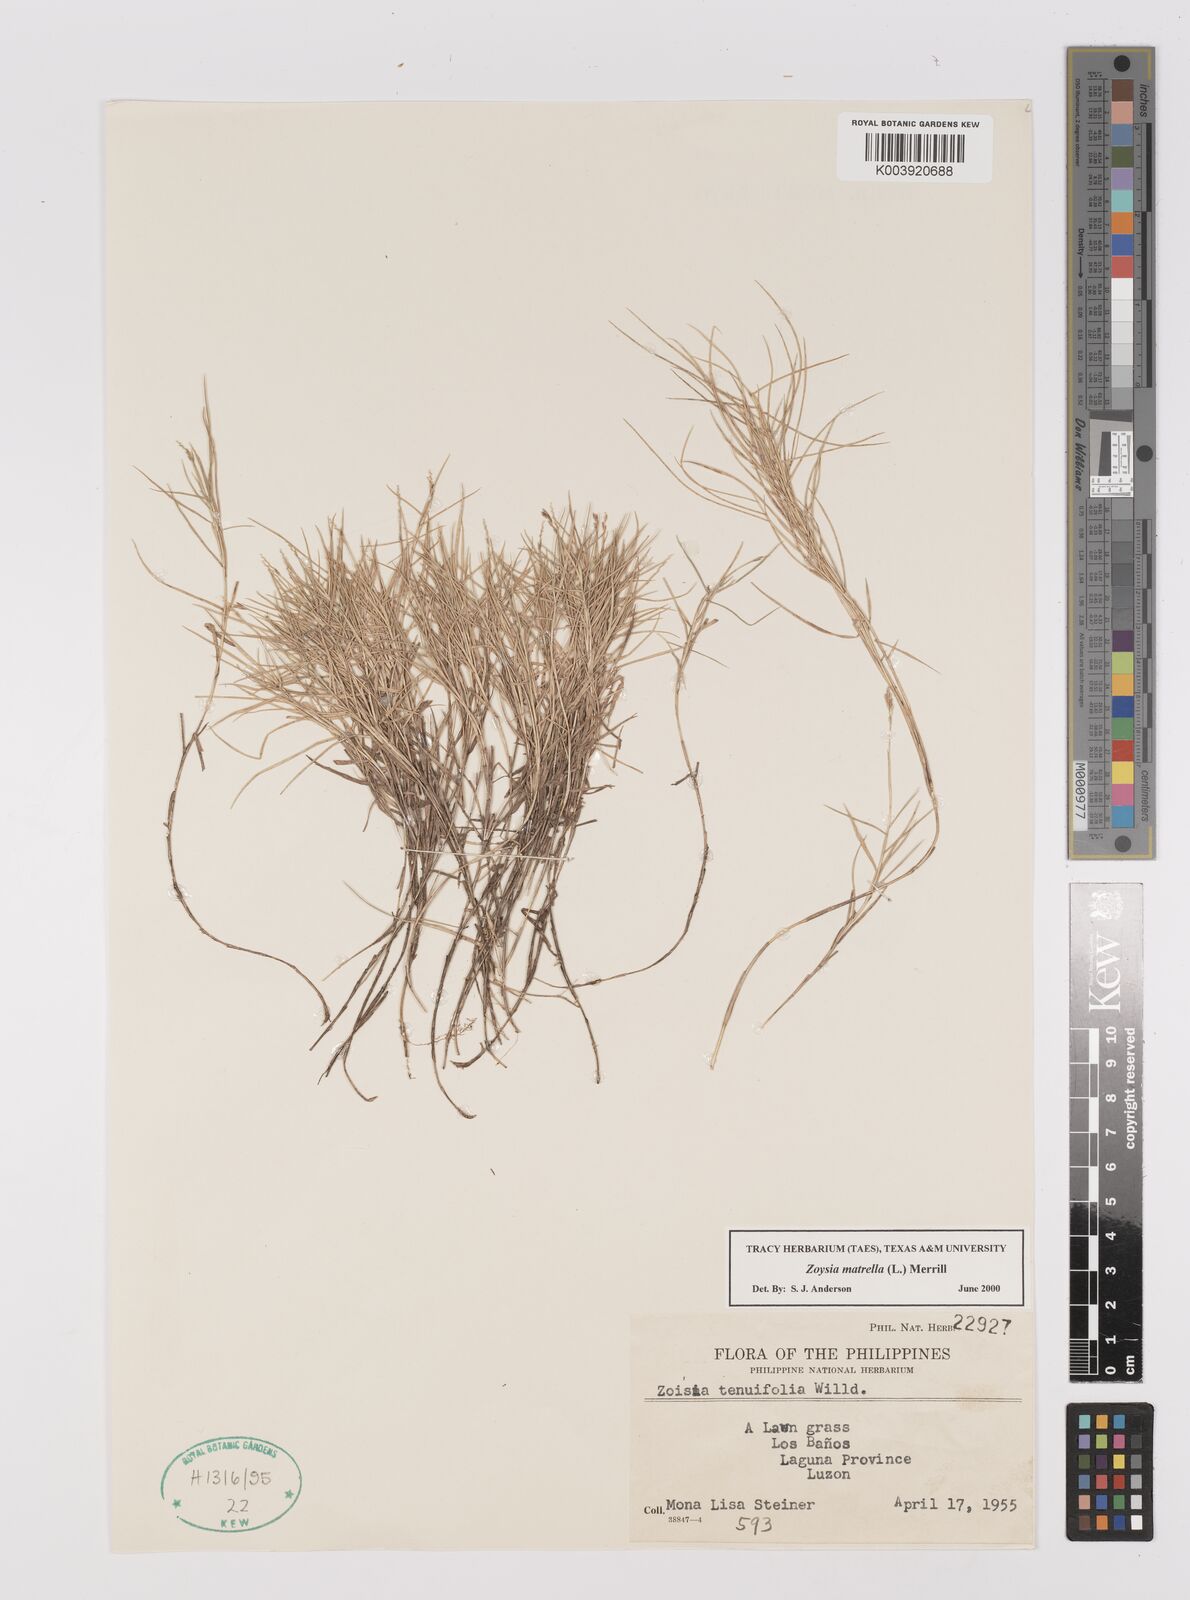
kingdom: Plantae
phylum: Tracheophyta
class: Liliopsida
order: Poales
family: Poaceae
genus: Zoysia
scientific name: Zoysia matrella
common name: Manila grass
